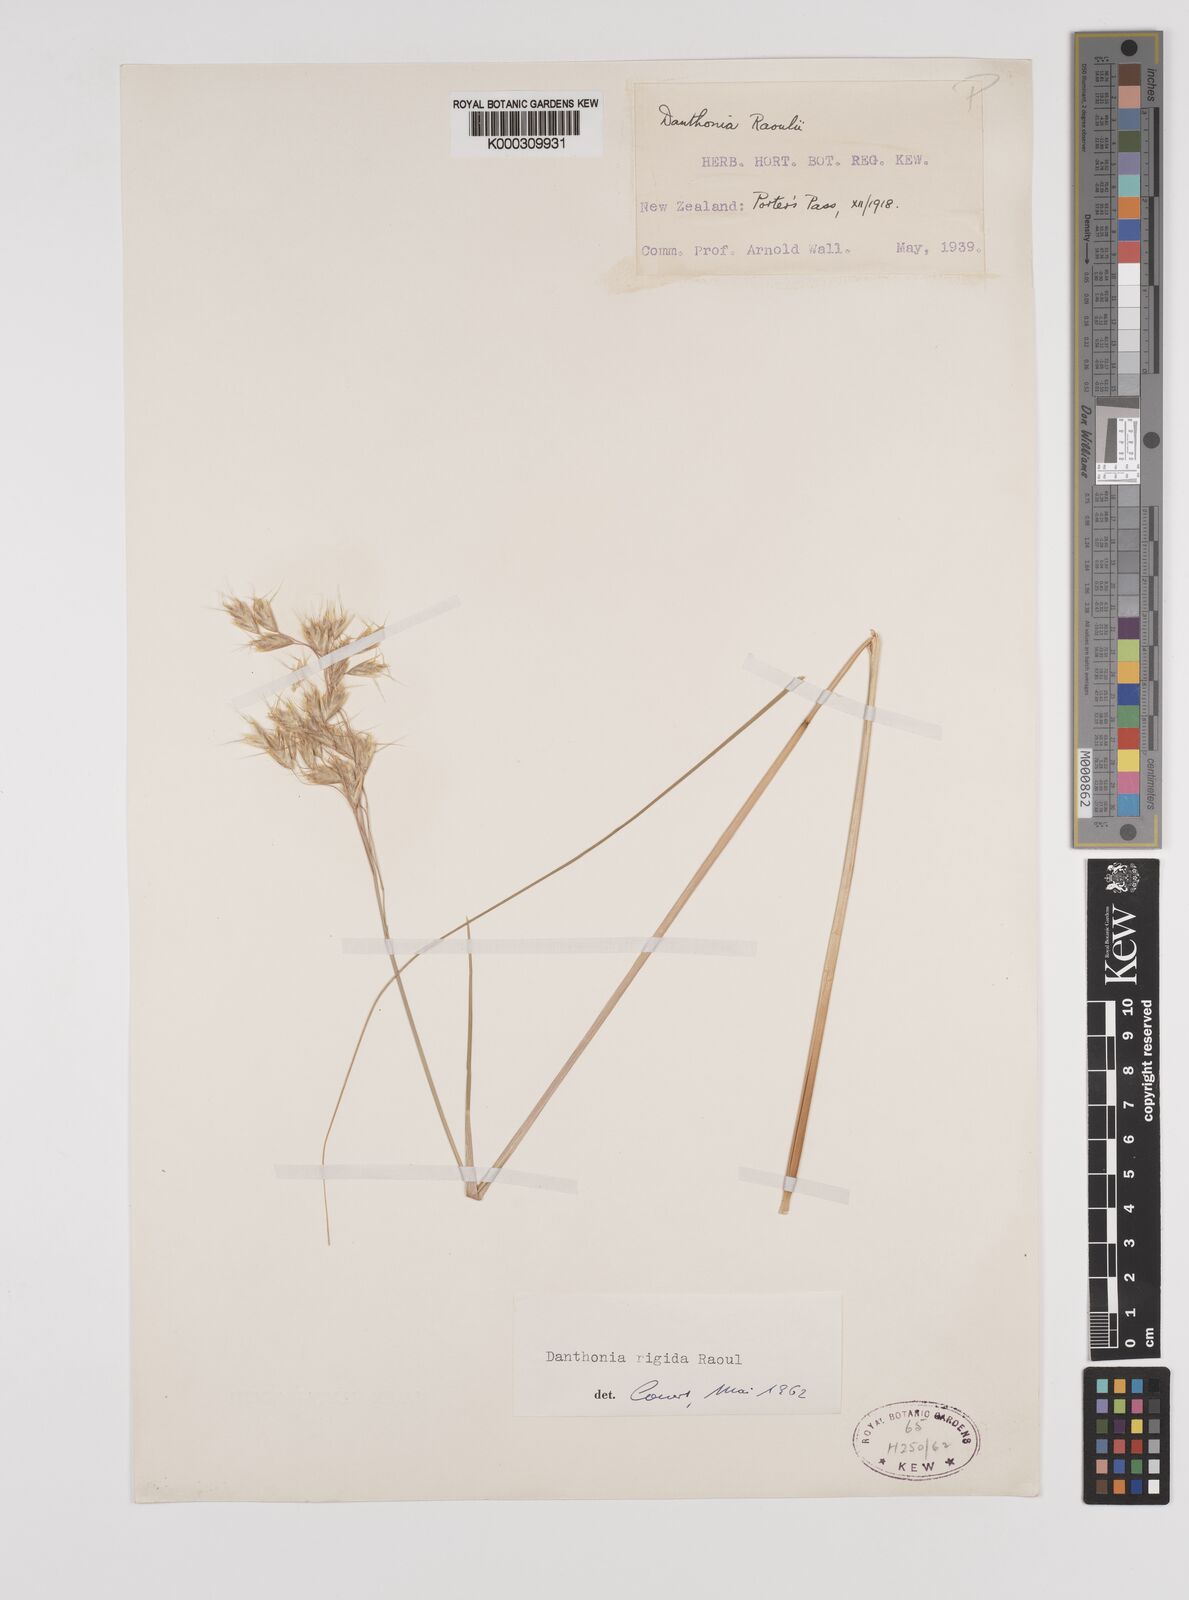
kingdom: Plantae
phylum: Tracheophyta
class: Liliopsida
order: Poales
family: Poaceae
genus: Chionochloa
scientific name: Chionochloa rigida
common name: Narrow leaved snow tussock
